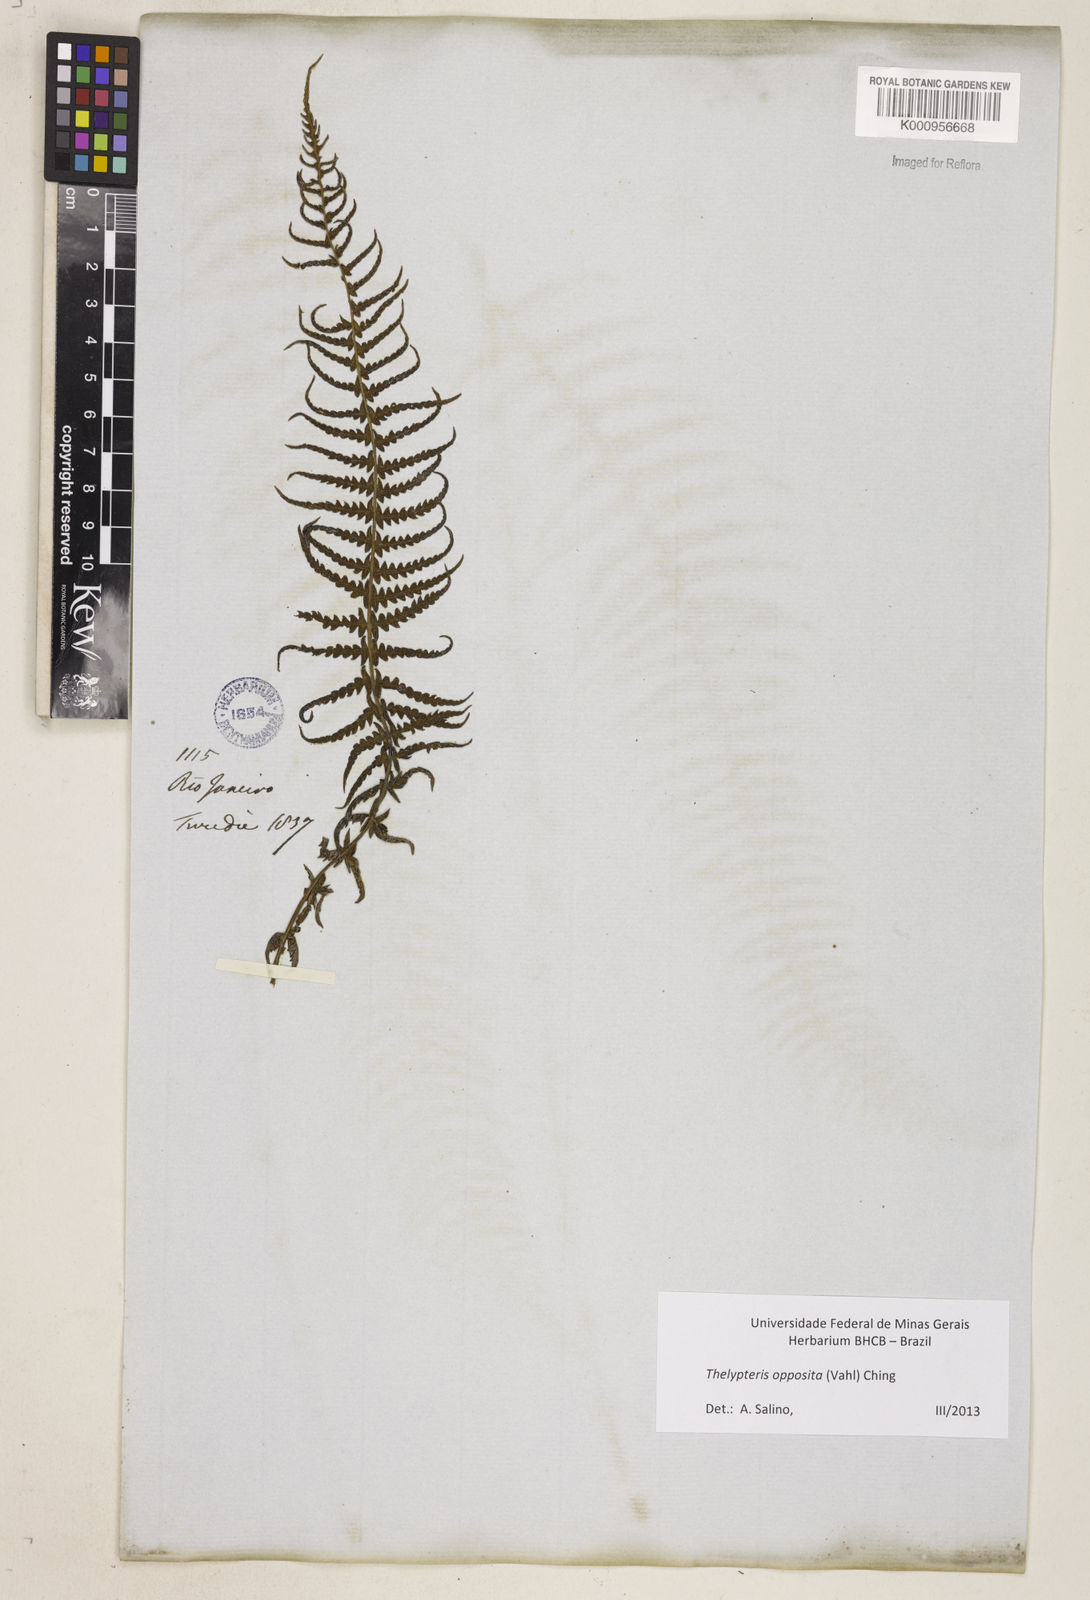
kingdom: Plantae
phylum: Tracheophyta
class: Polypodiopsida
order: Polypodiales
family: Thelypteridaceae
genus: Amauropelta
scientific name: Amauropelta opposita
